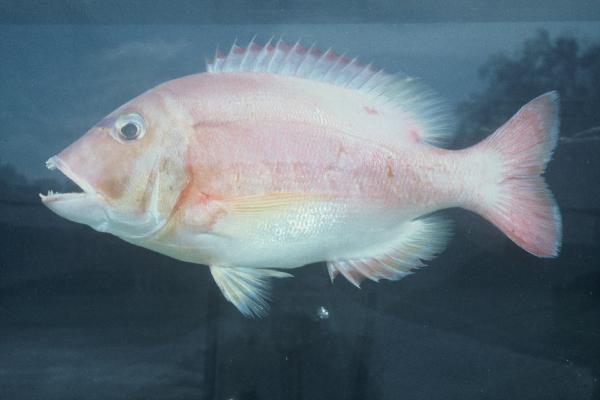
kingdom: Animalia
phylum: Chordata
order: Perciformes
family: Sparidae
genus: Porcostoma
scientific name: Porcostoma dentata
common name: Dane
